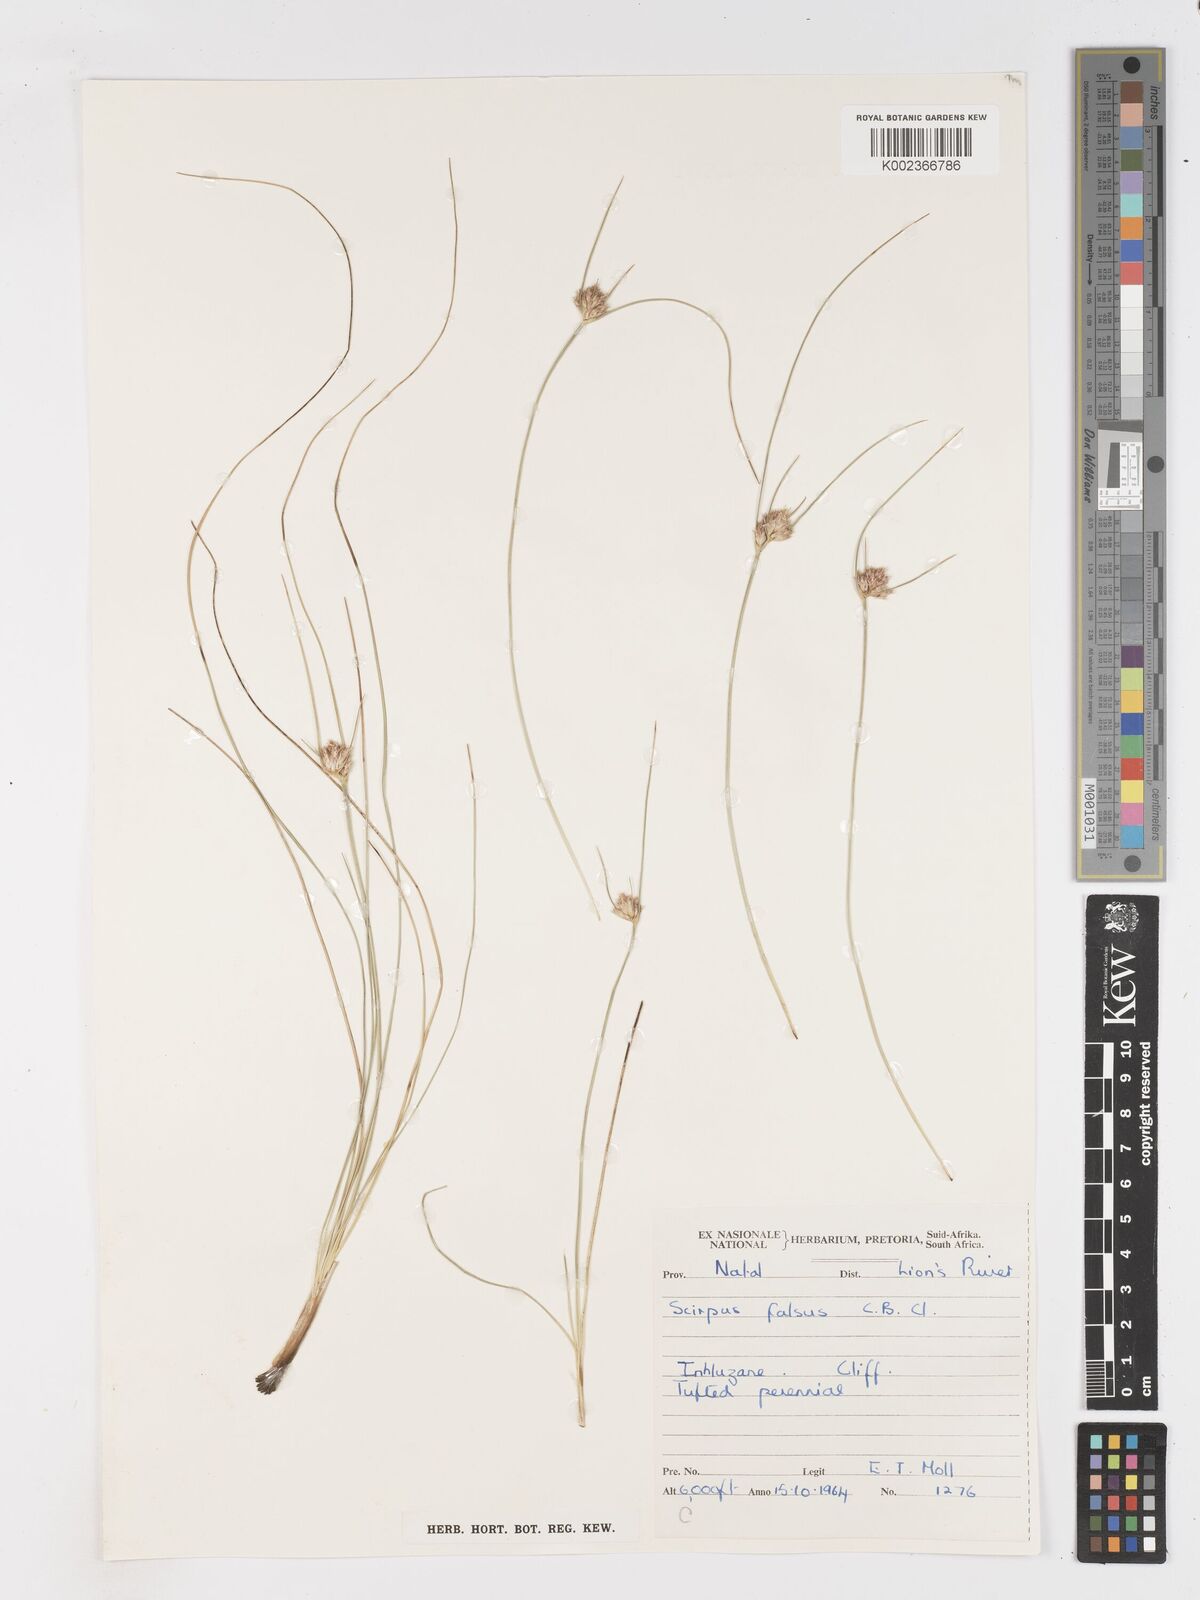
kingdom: Plantae
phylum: Tracheophyta
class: Liliopsida
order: Poales
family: Cyperaceae
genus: Dracoscirpoides
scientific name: Dracoscirpoides falsa
